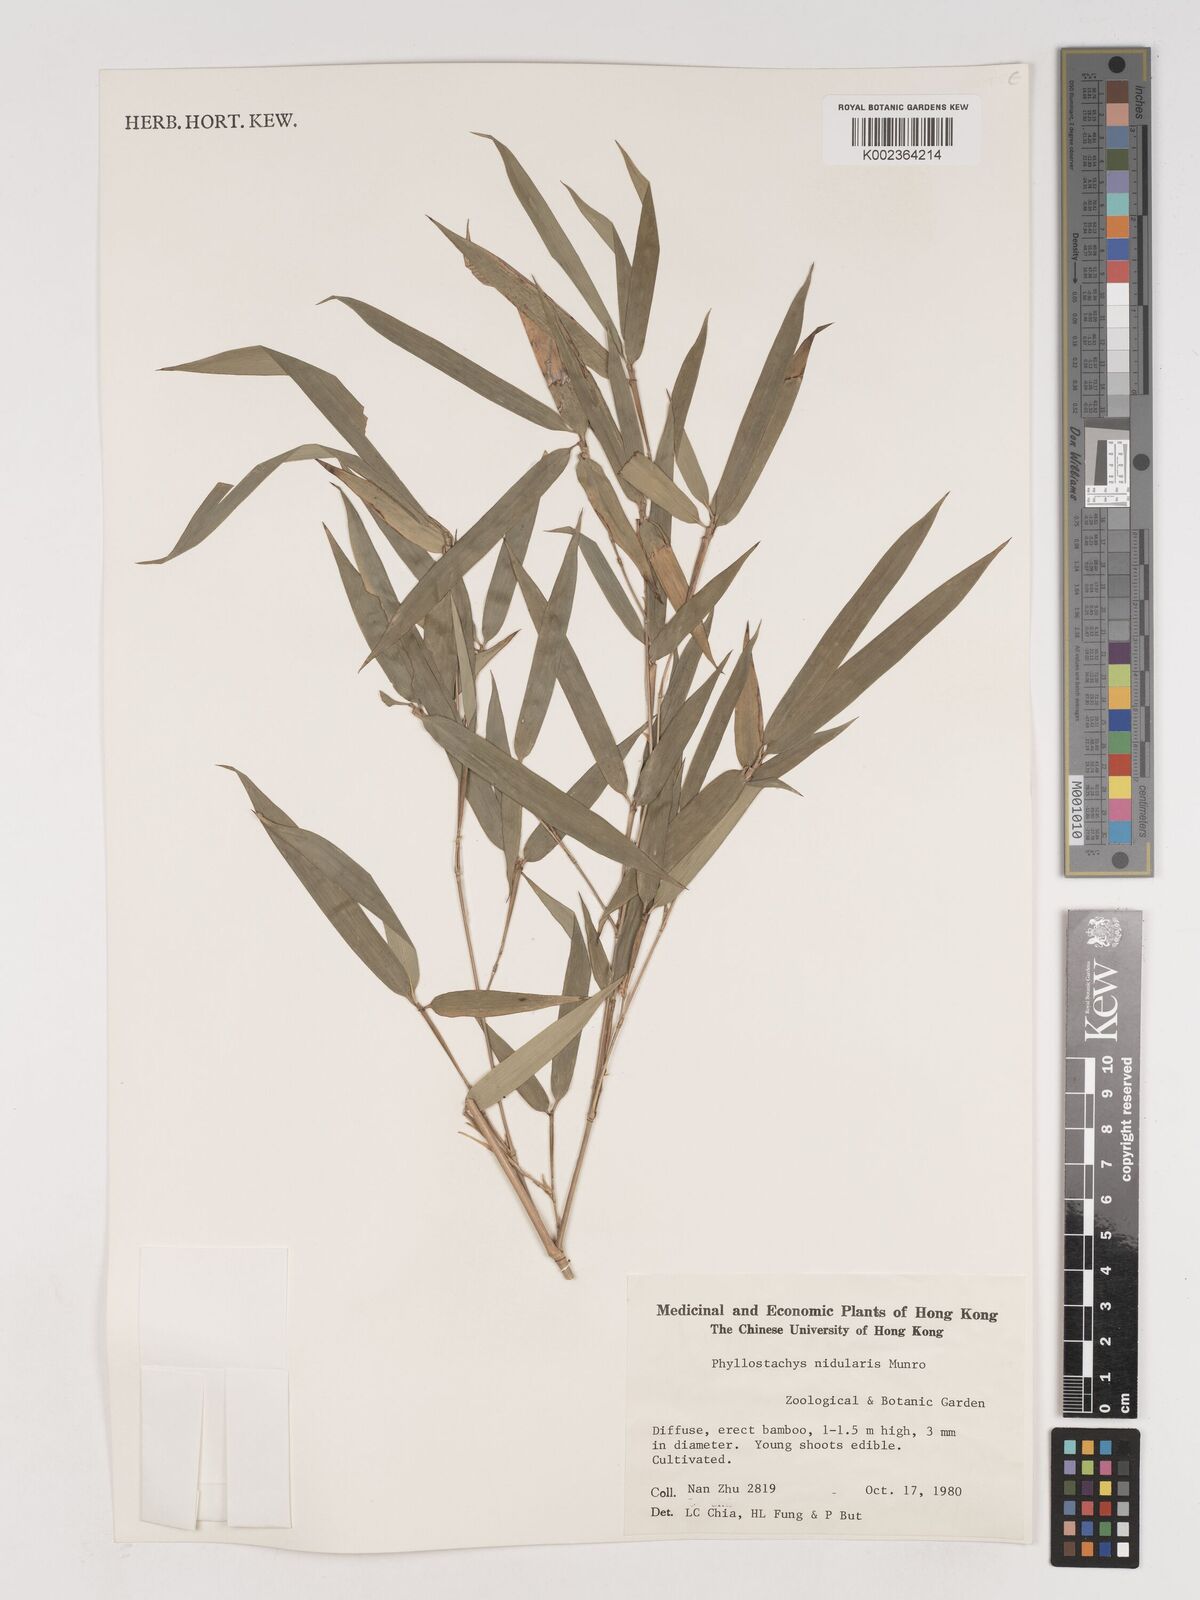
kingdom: Plantae
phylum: Tracheophyta
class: Liliopsida
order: Poales
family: Poaceae
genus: Phyllostachys
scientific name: Phyllostachys nidularia
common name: Broom bamboo
